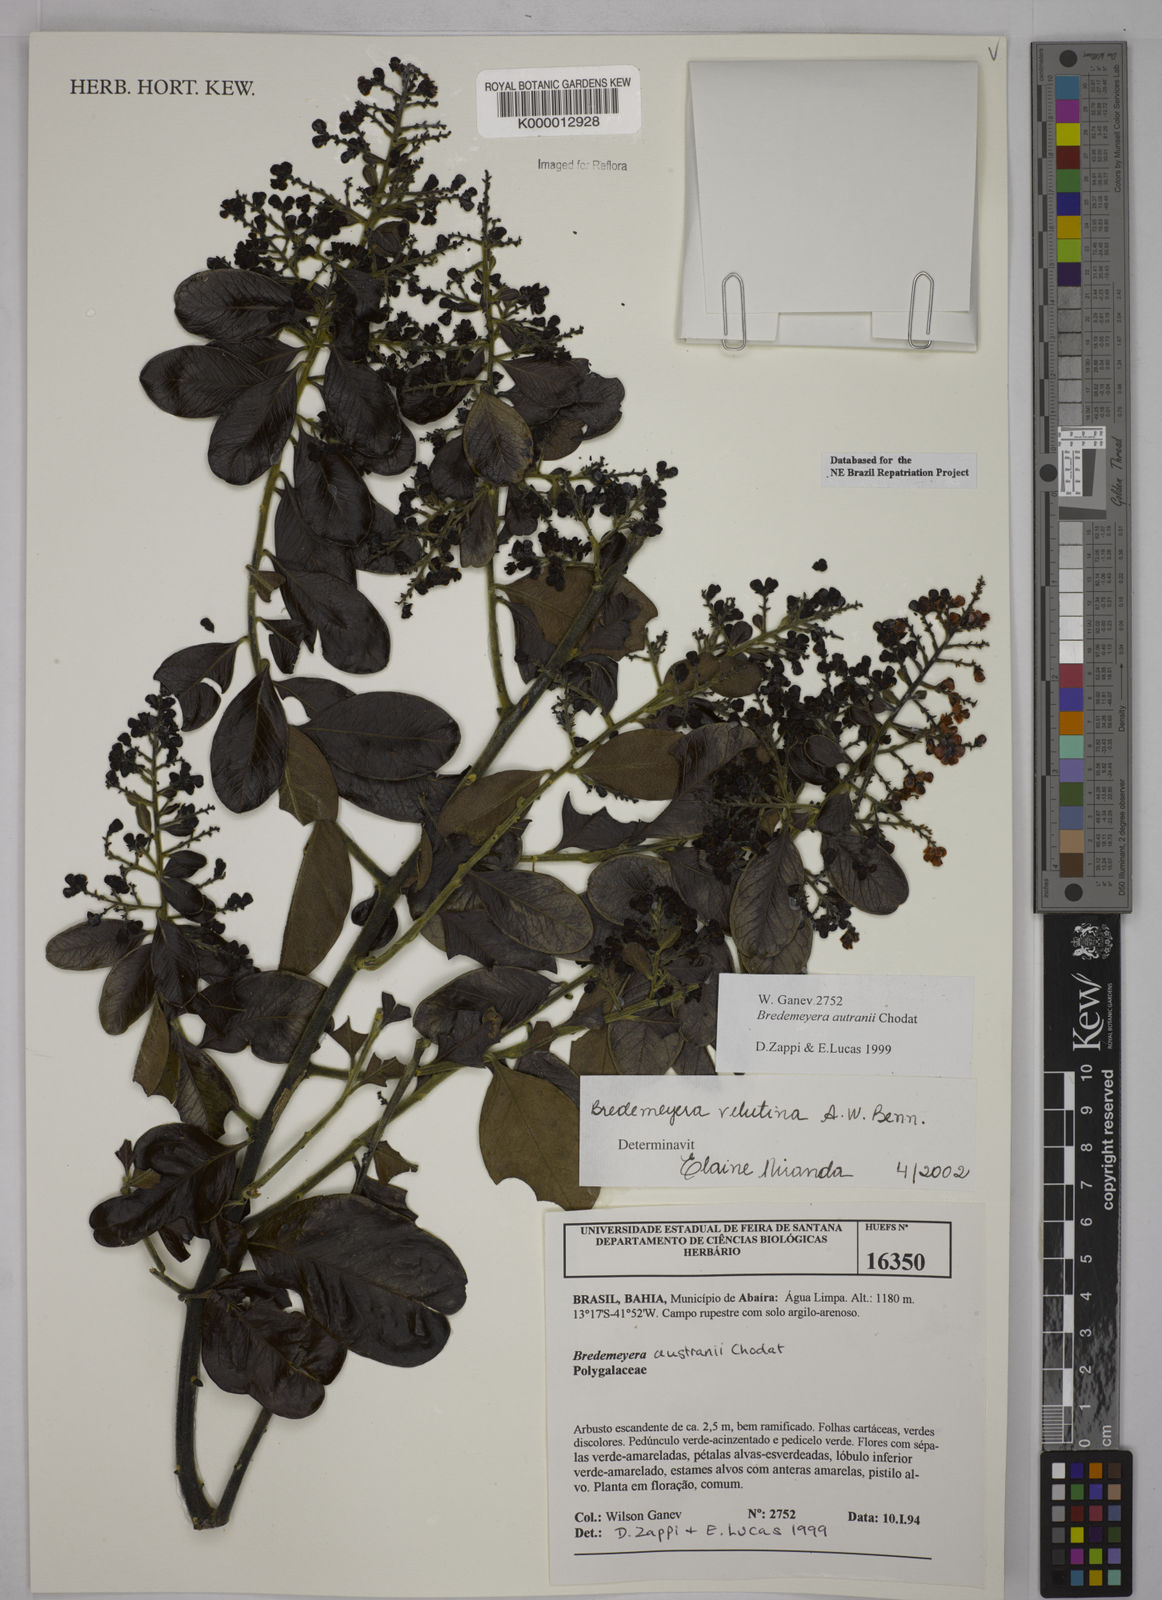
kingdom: Plantae
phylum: Tracheophyta
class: Magnoliopsida
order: Fabales
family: Polygalaceae
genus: Bredemeyera
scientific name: Bredemeyera hebeclada
